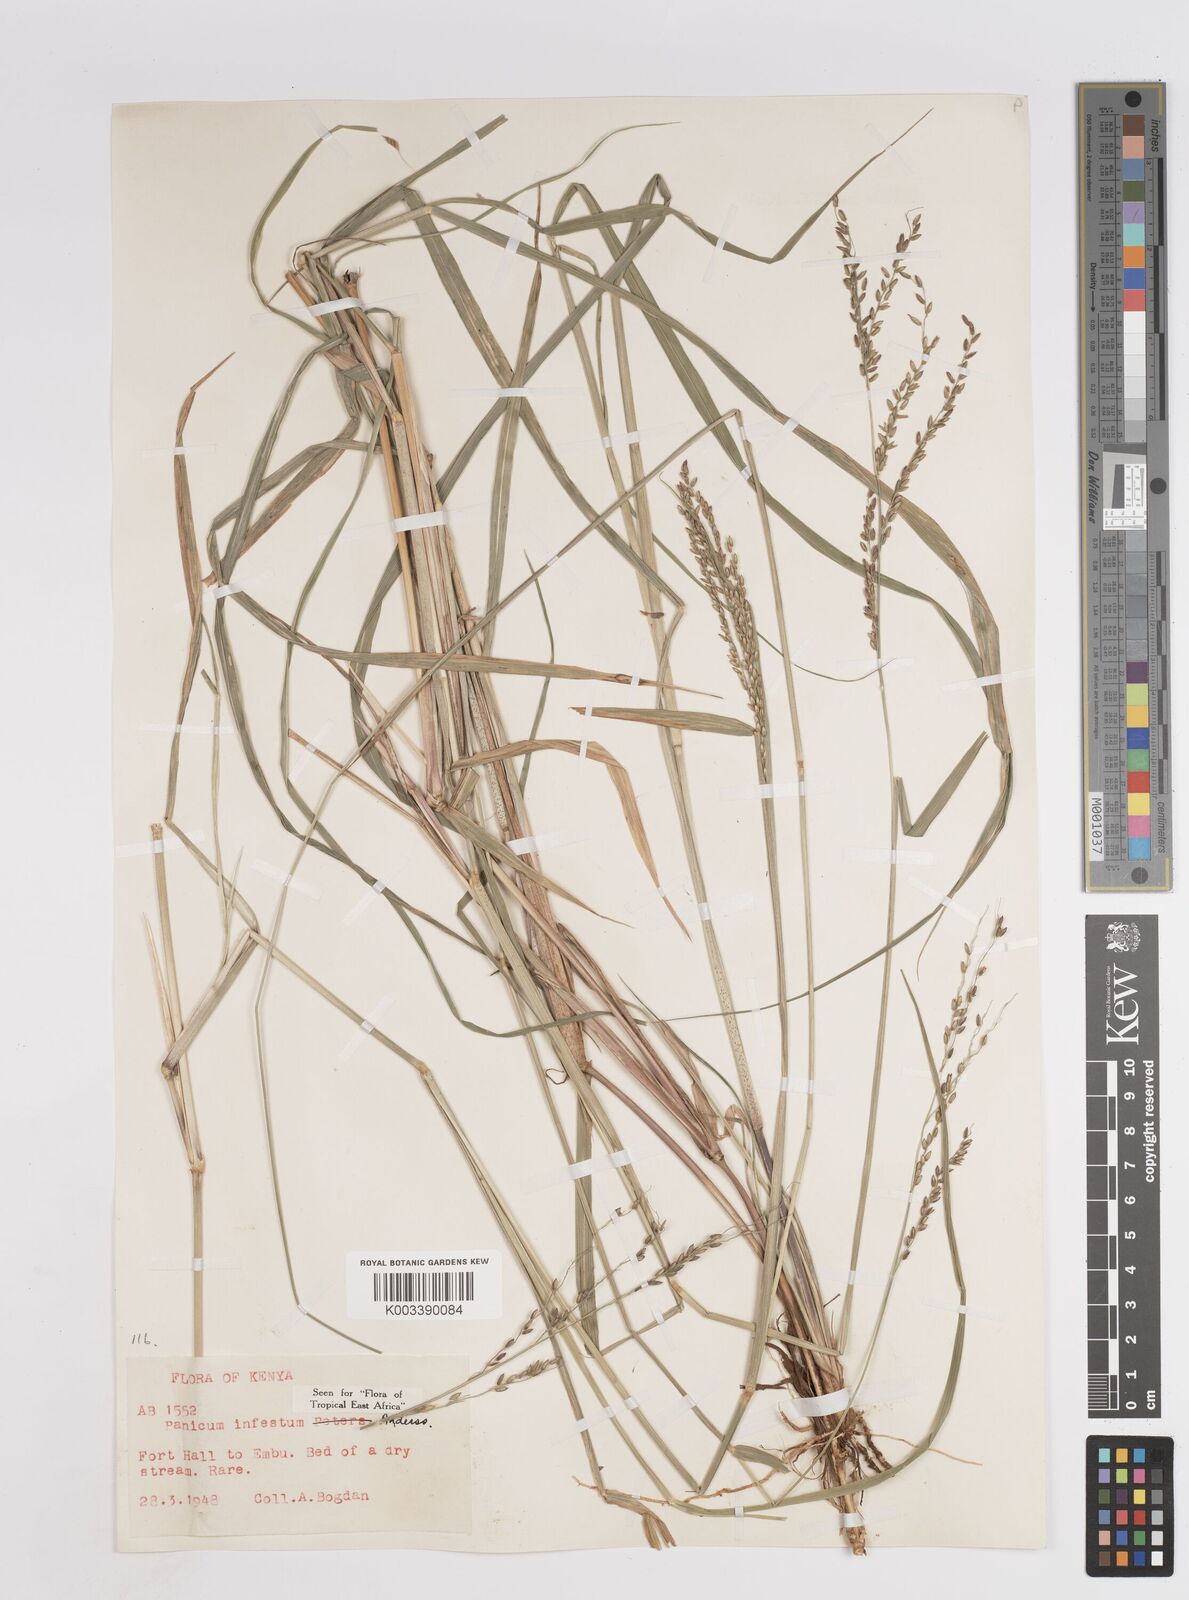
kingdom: Plantae
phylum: Tracheophyta
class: Liliopsida
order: Poales
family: Poaceae
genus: Megathyrsus
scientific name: Megathyrsus infestus
